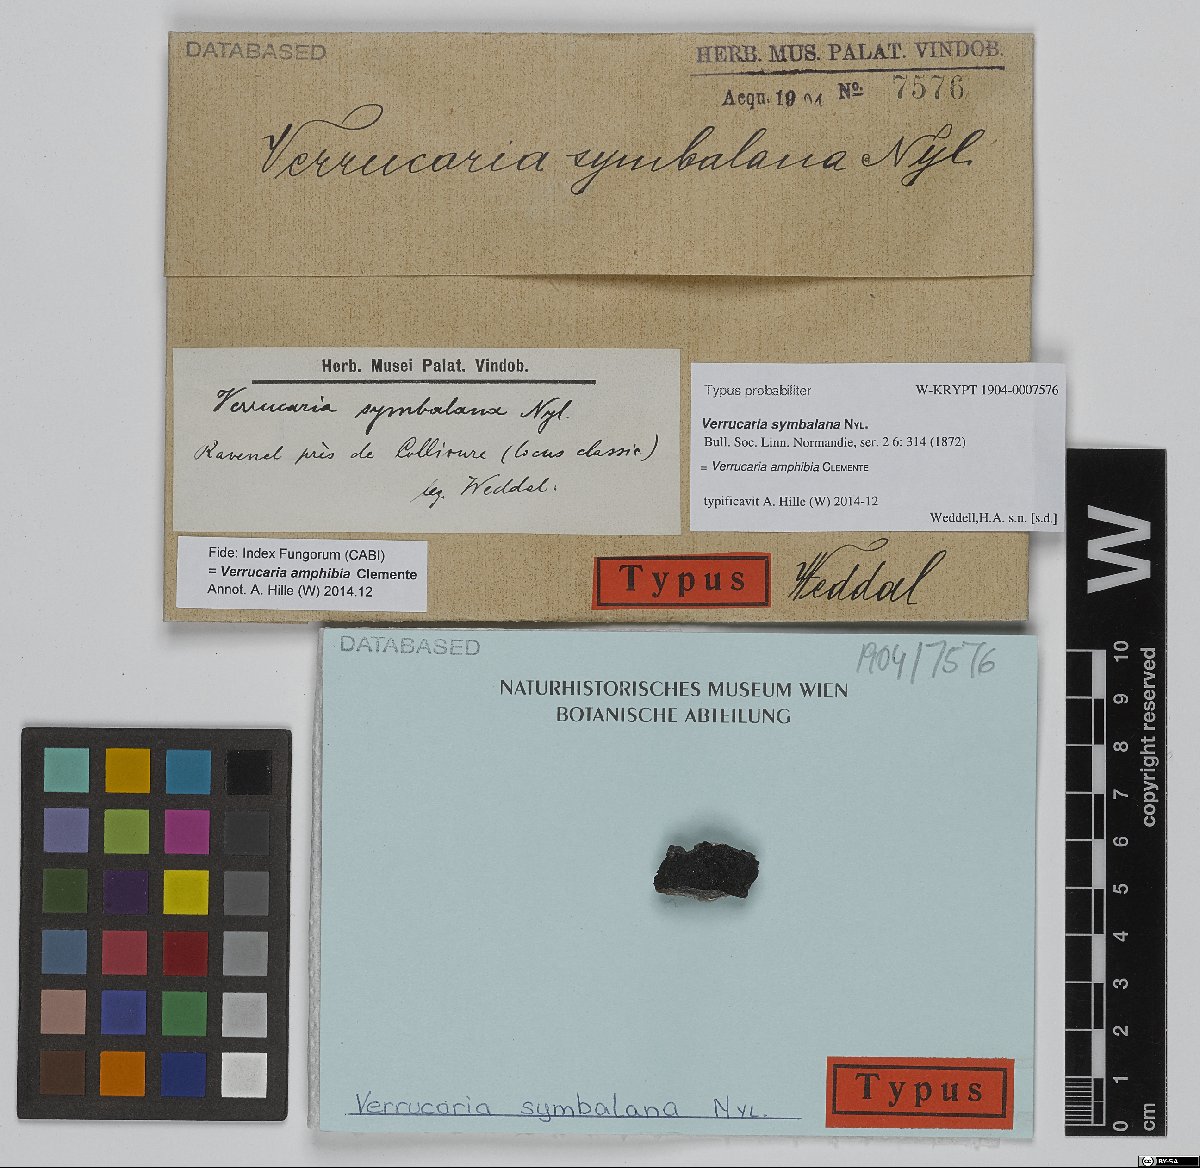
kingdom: Fungi
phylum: Ascomycota
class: Eurotiomycetes
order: Verrucariales
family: Verrucariaceae
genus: Hydropunctaria
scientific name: Hydropunctaria symbalana
